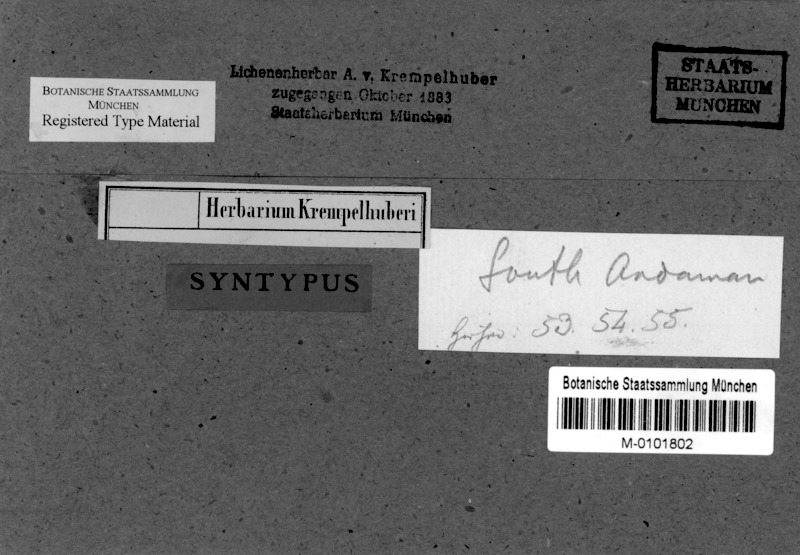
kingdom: Fungi
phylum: Ascomycota
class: Arthoniomycetes
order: Arthoniales
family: Arthoniaceae
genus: Arthonia
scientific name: Arthonia
